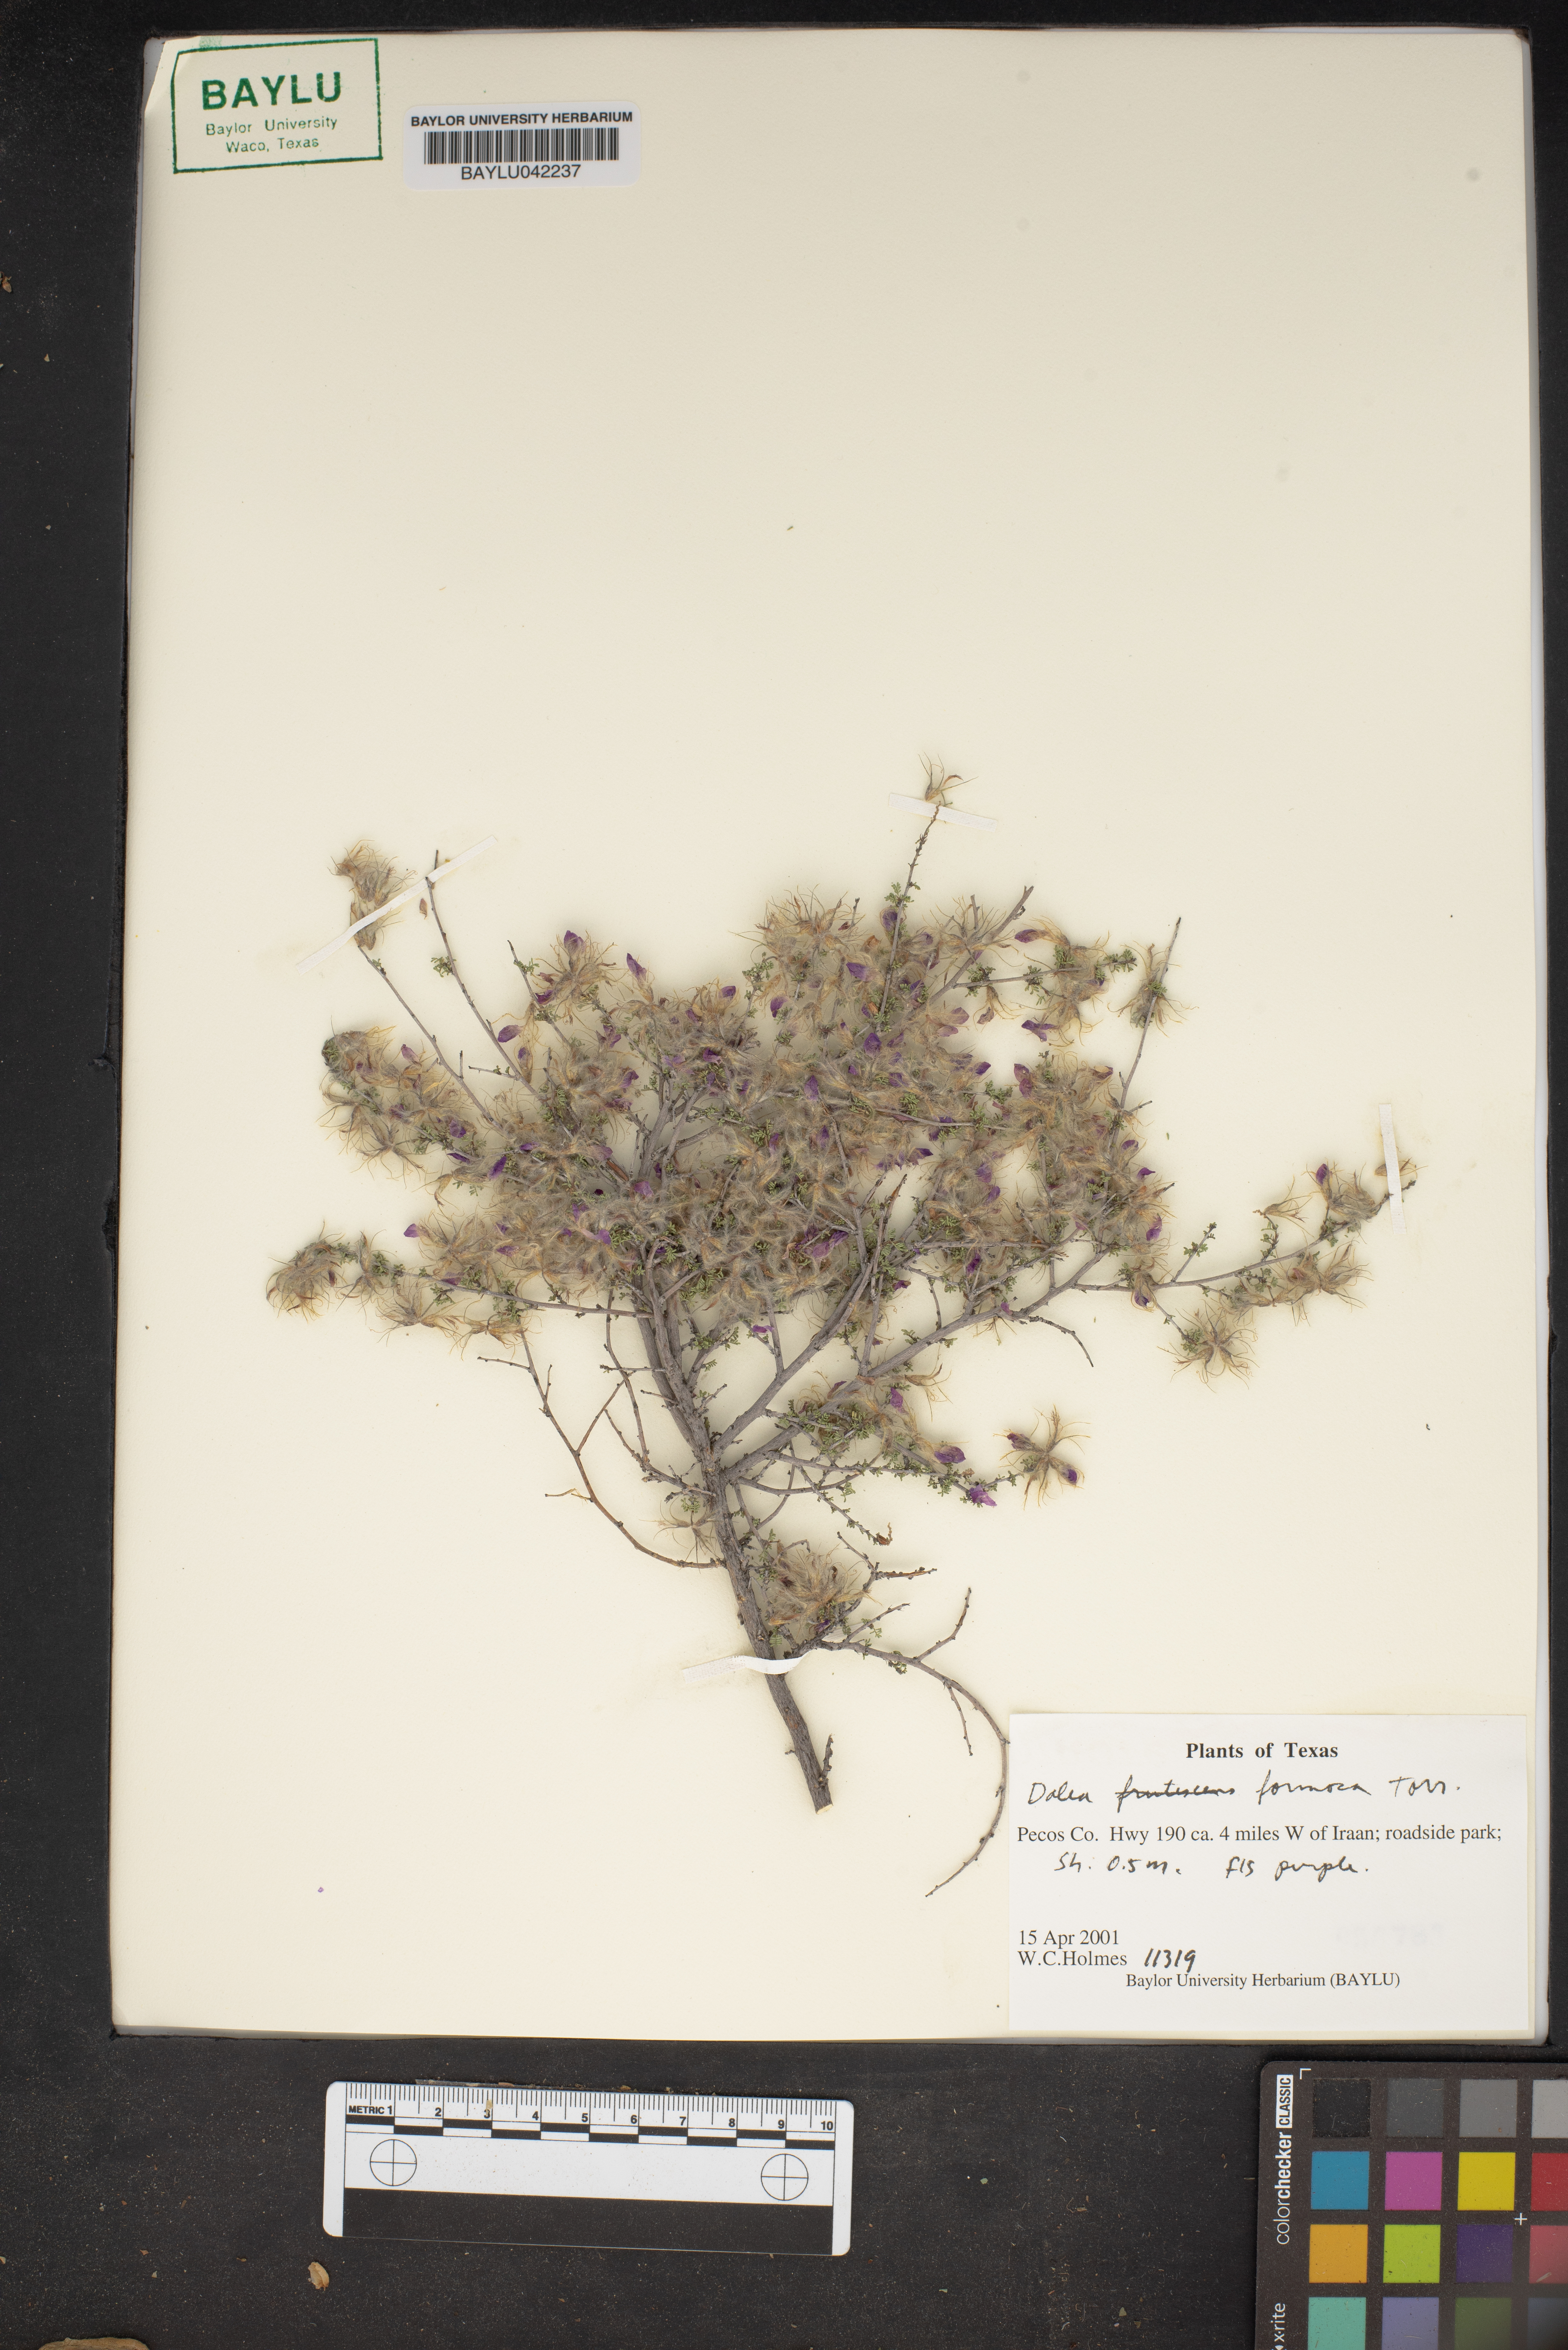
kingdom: Plantae
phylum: Tracheophyta
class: Magnoliopsida
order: Fabales
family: Fabaceae
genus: Dalea
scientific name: Dalea formosa
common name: Feather-plume dalea
